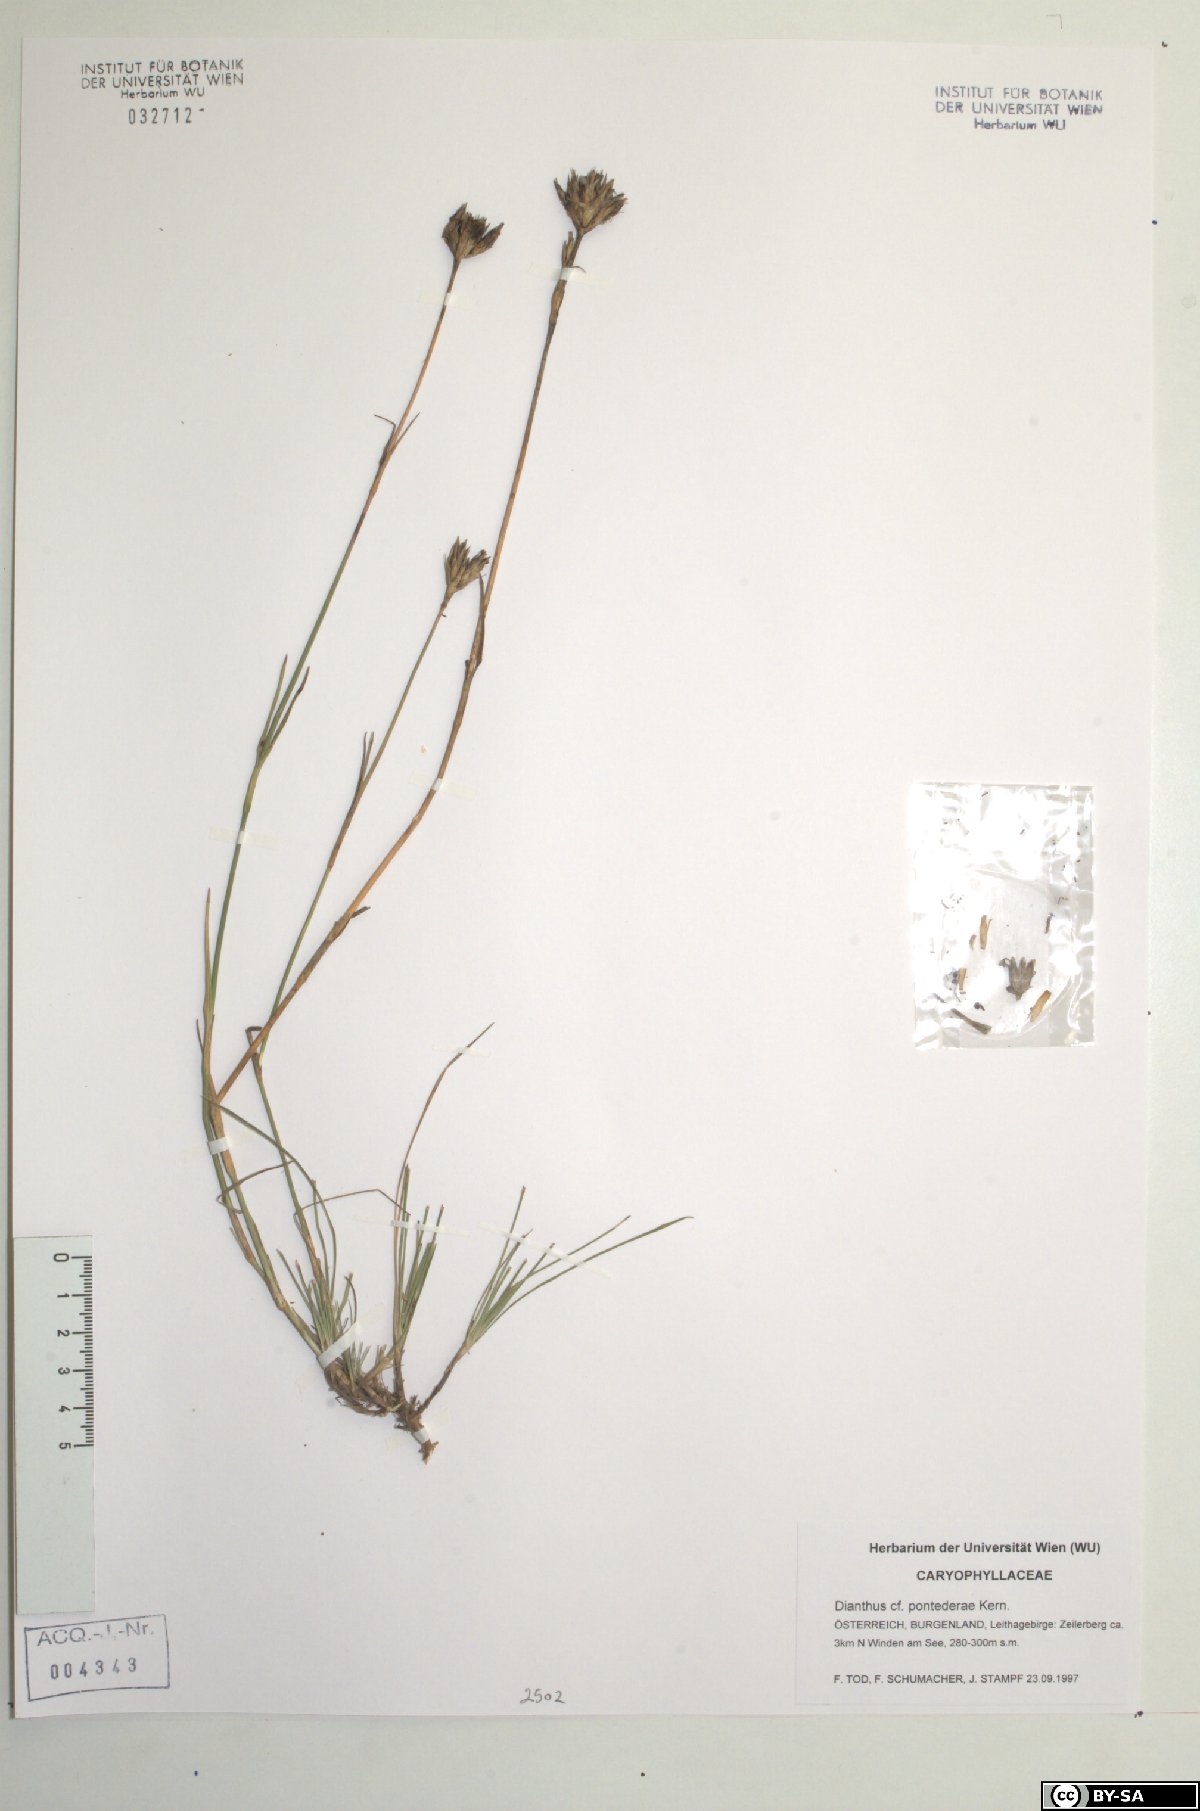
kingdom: Plantae
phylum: Tracheophyta
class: Magnoliopsida
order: Caryophyllales
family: Caryophyllaceae
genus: Dianthus
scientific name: Dianthus pontederae
